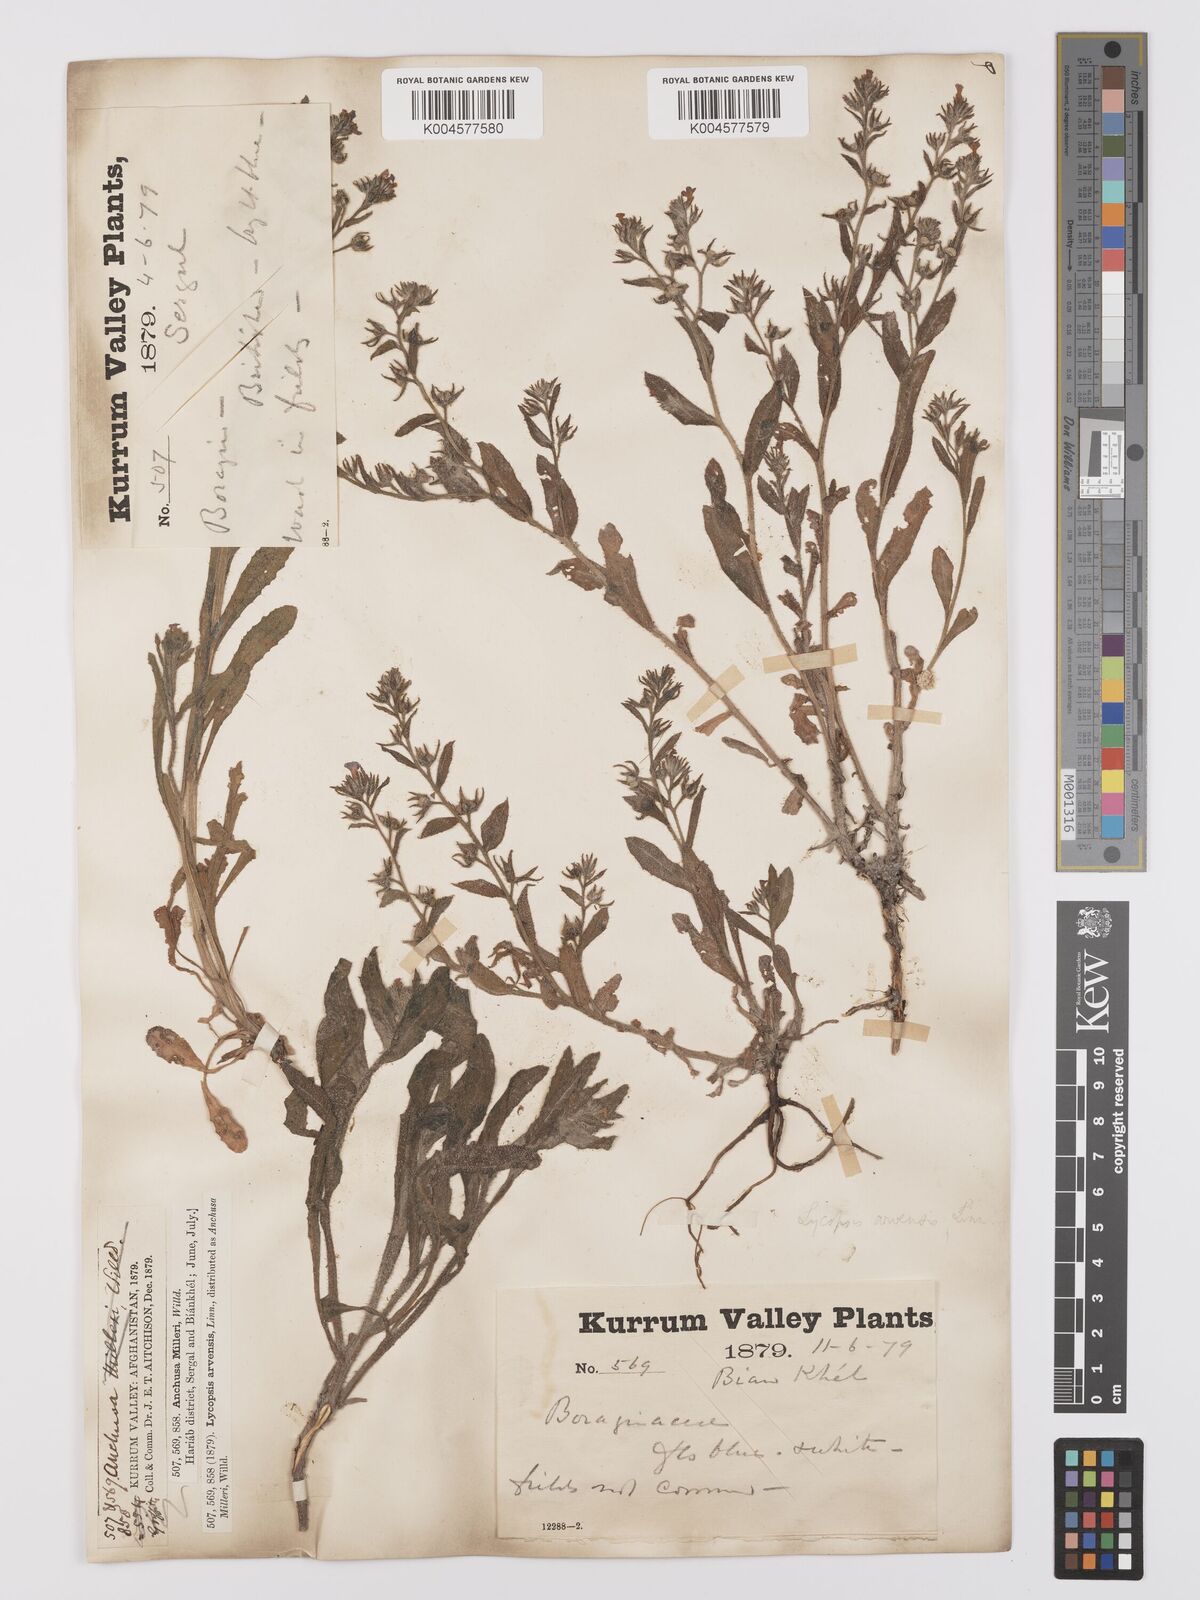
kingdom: Plantae
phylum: Tracheophyta
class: Magnoliopsida
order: Boraginales
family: Boraginaceae
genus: Lycopsis
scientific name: Lycopsis arvensis
